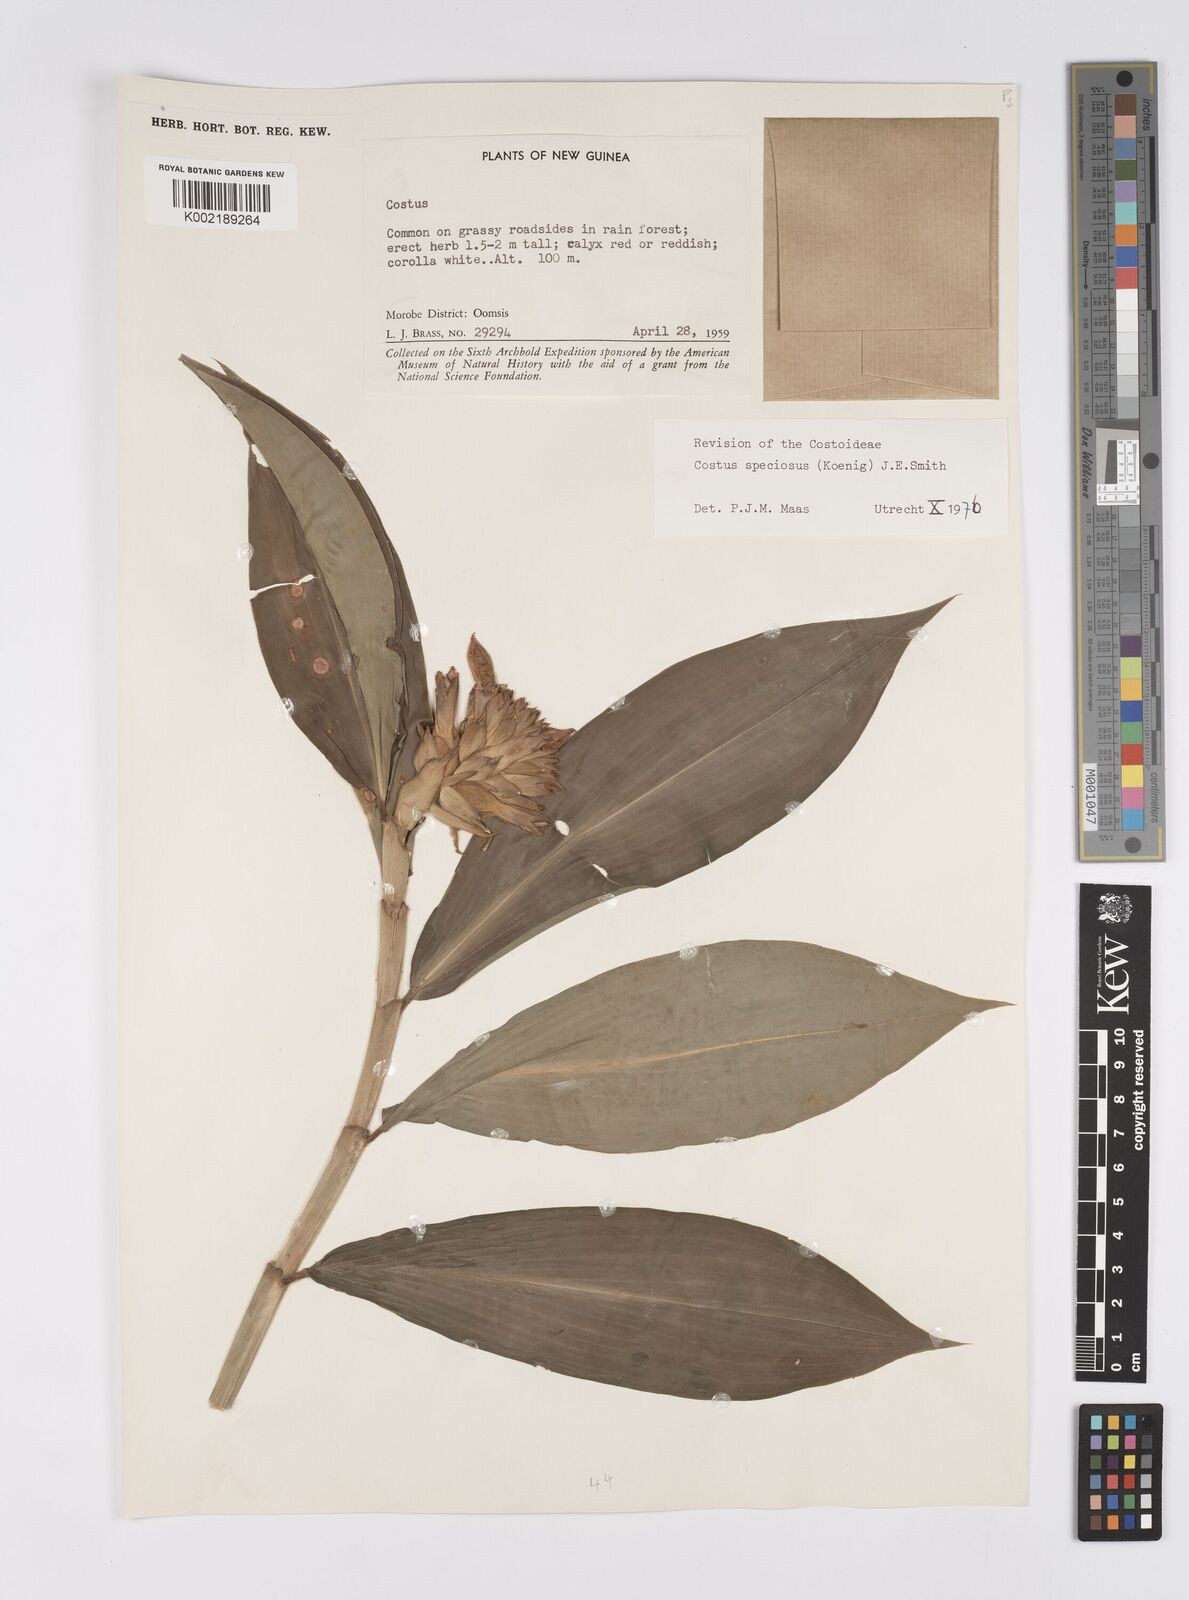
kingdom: Plantae
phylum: Tracheophyta
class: Liliopsida
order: Zingiberales
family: Costaceae
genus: Hellenia
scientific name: Hellenia speciosa
